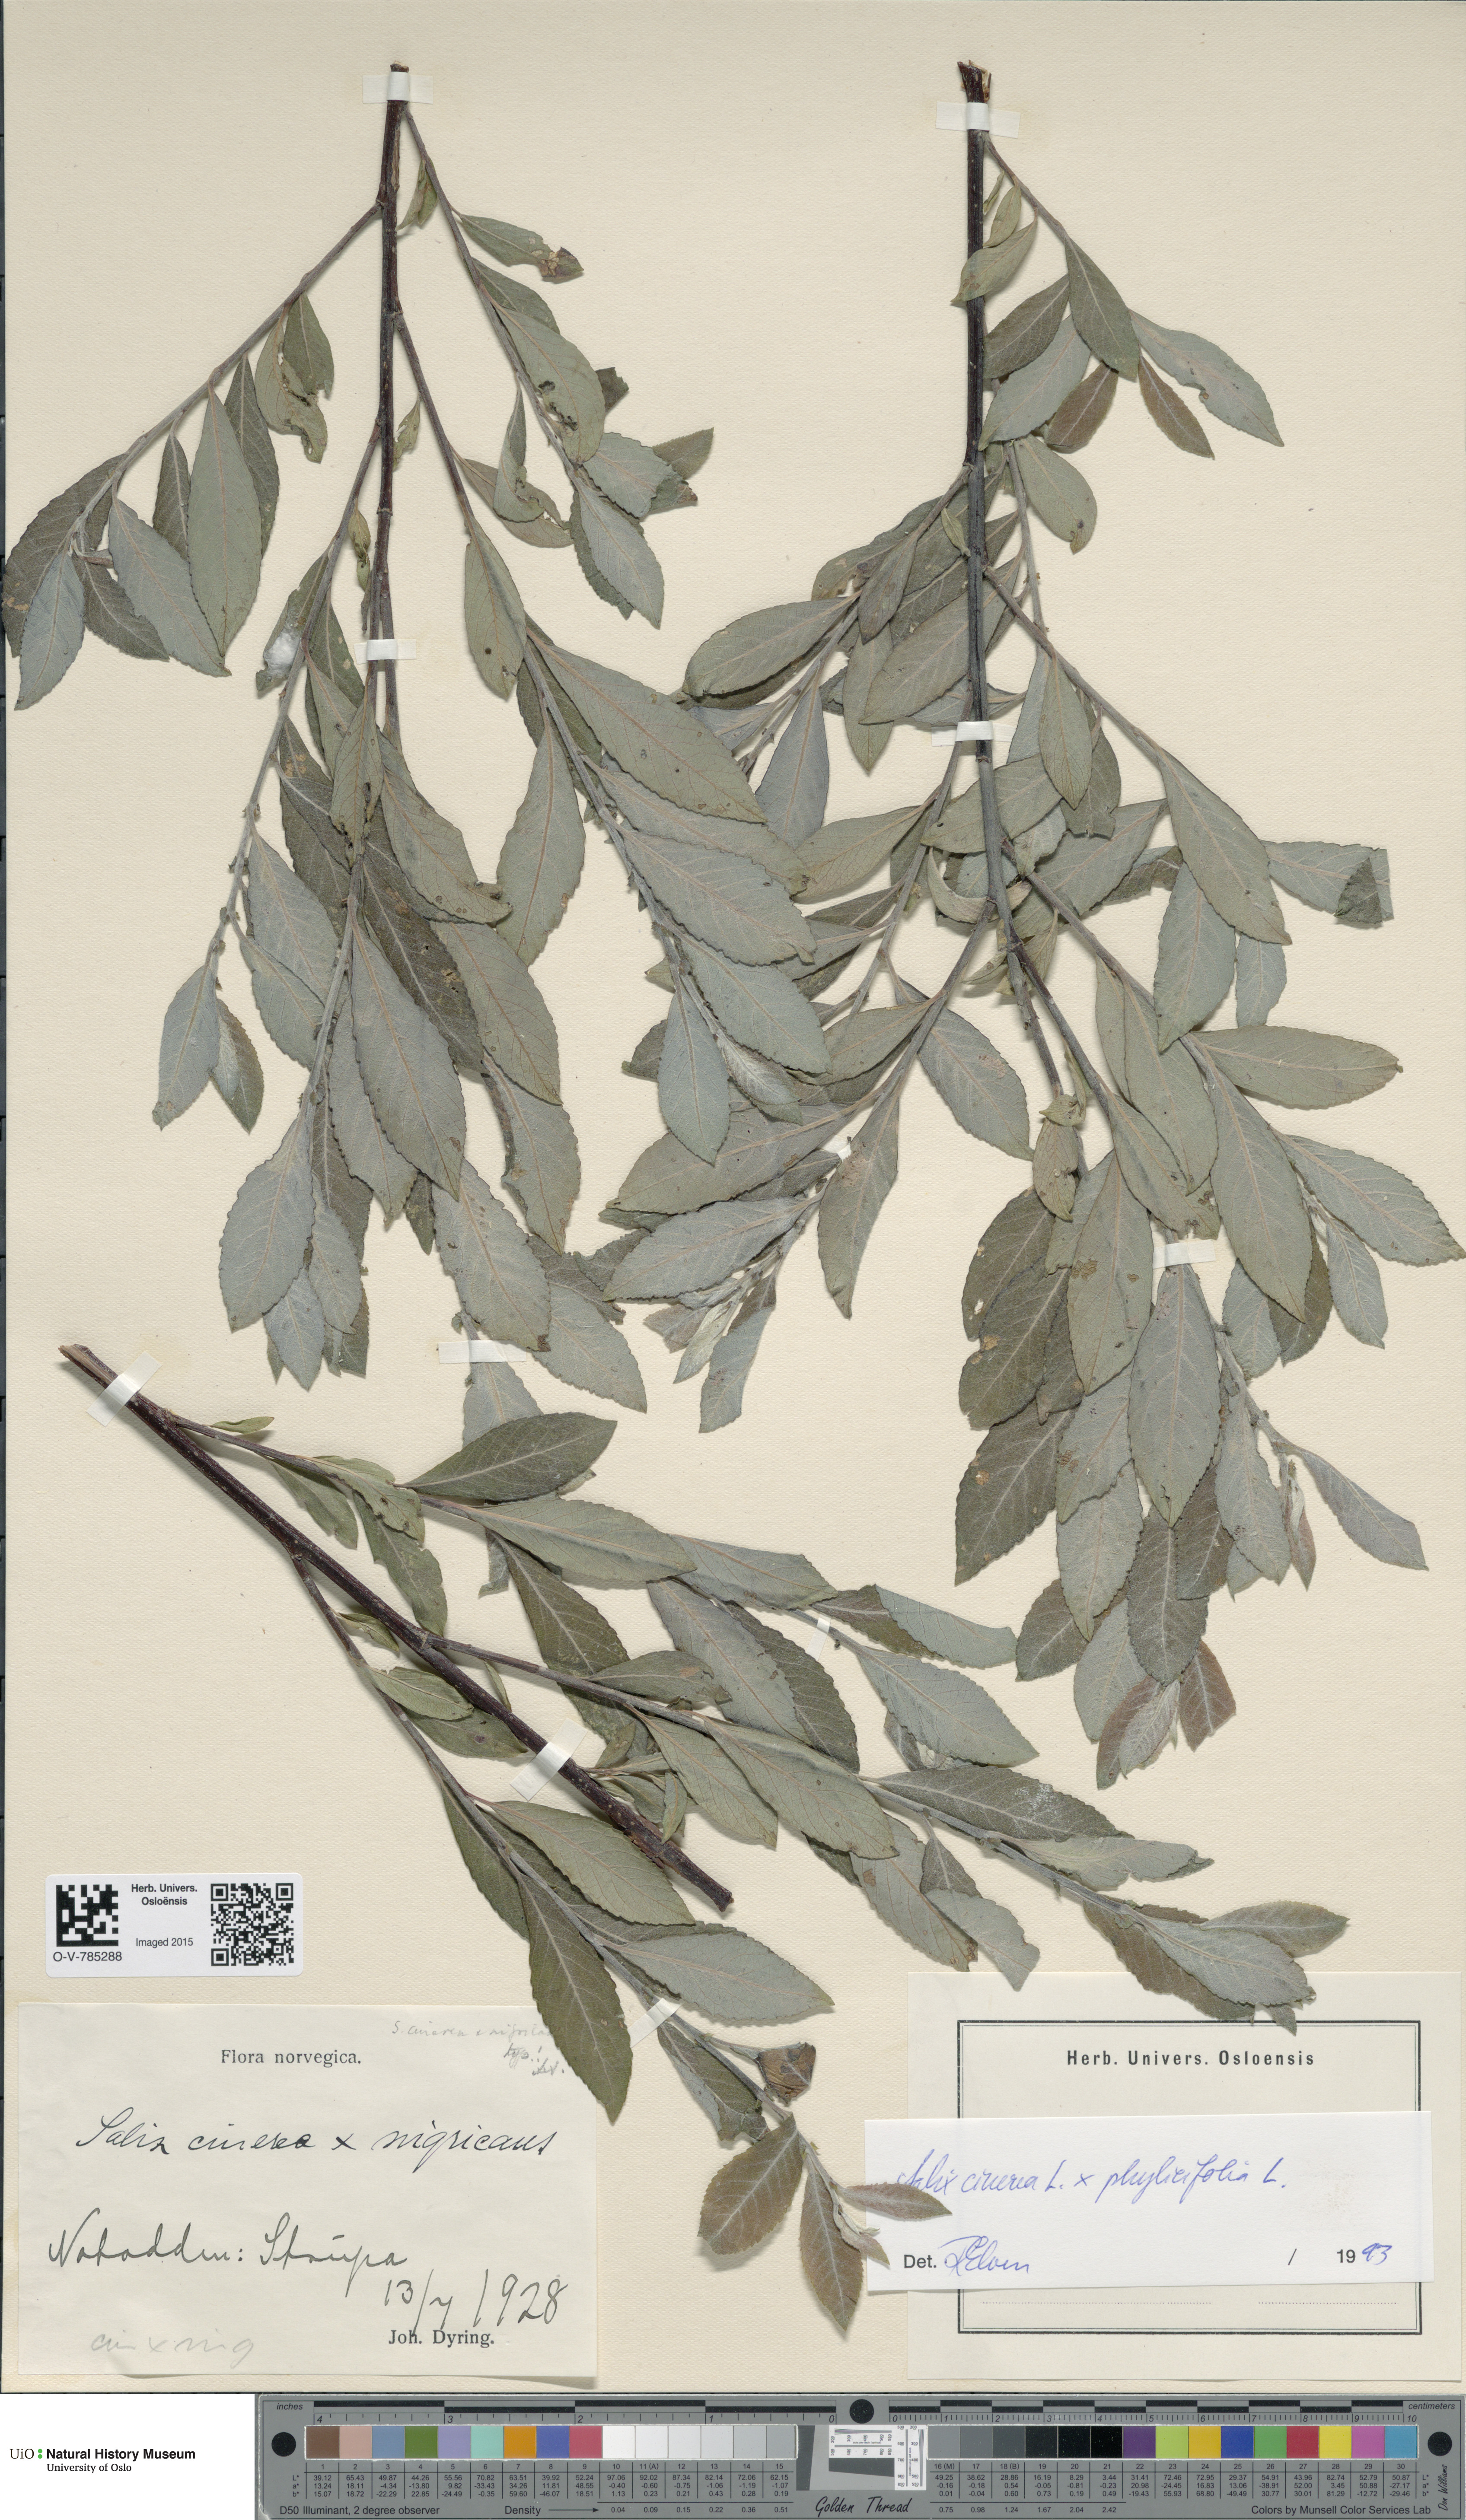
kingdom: Plantae
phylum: Tracheophyta
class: Magnoliopsida
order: Malpighiales
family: Salicaceae
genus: Salix
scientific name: Salix
